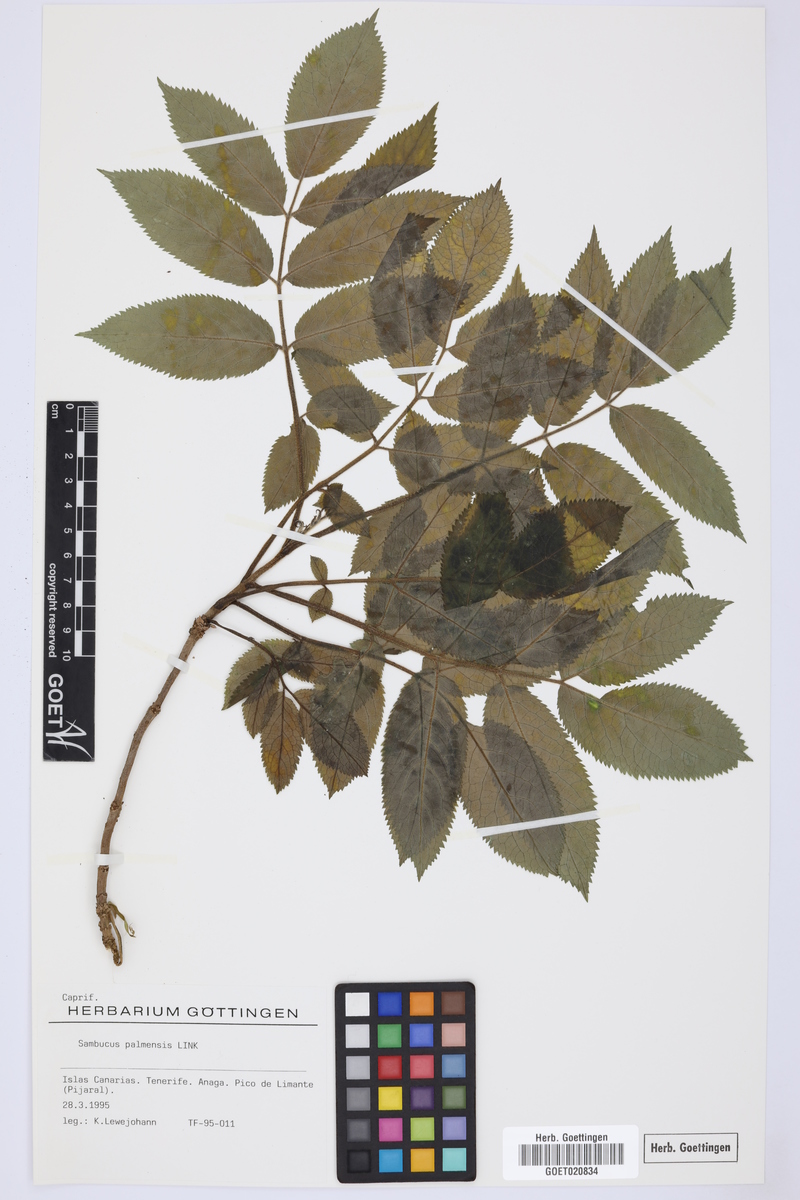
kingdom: Plantae
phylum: Tracheophyta
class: Magnoliopsida
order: Dipsacales
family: Viburnaceae
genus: Sambucus
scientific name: Sambucus palmensis
